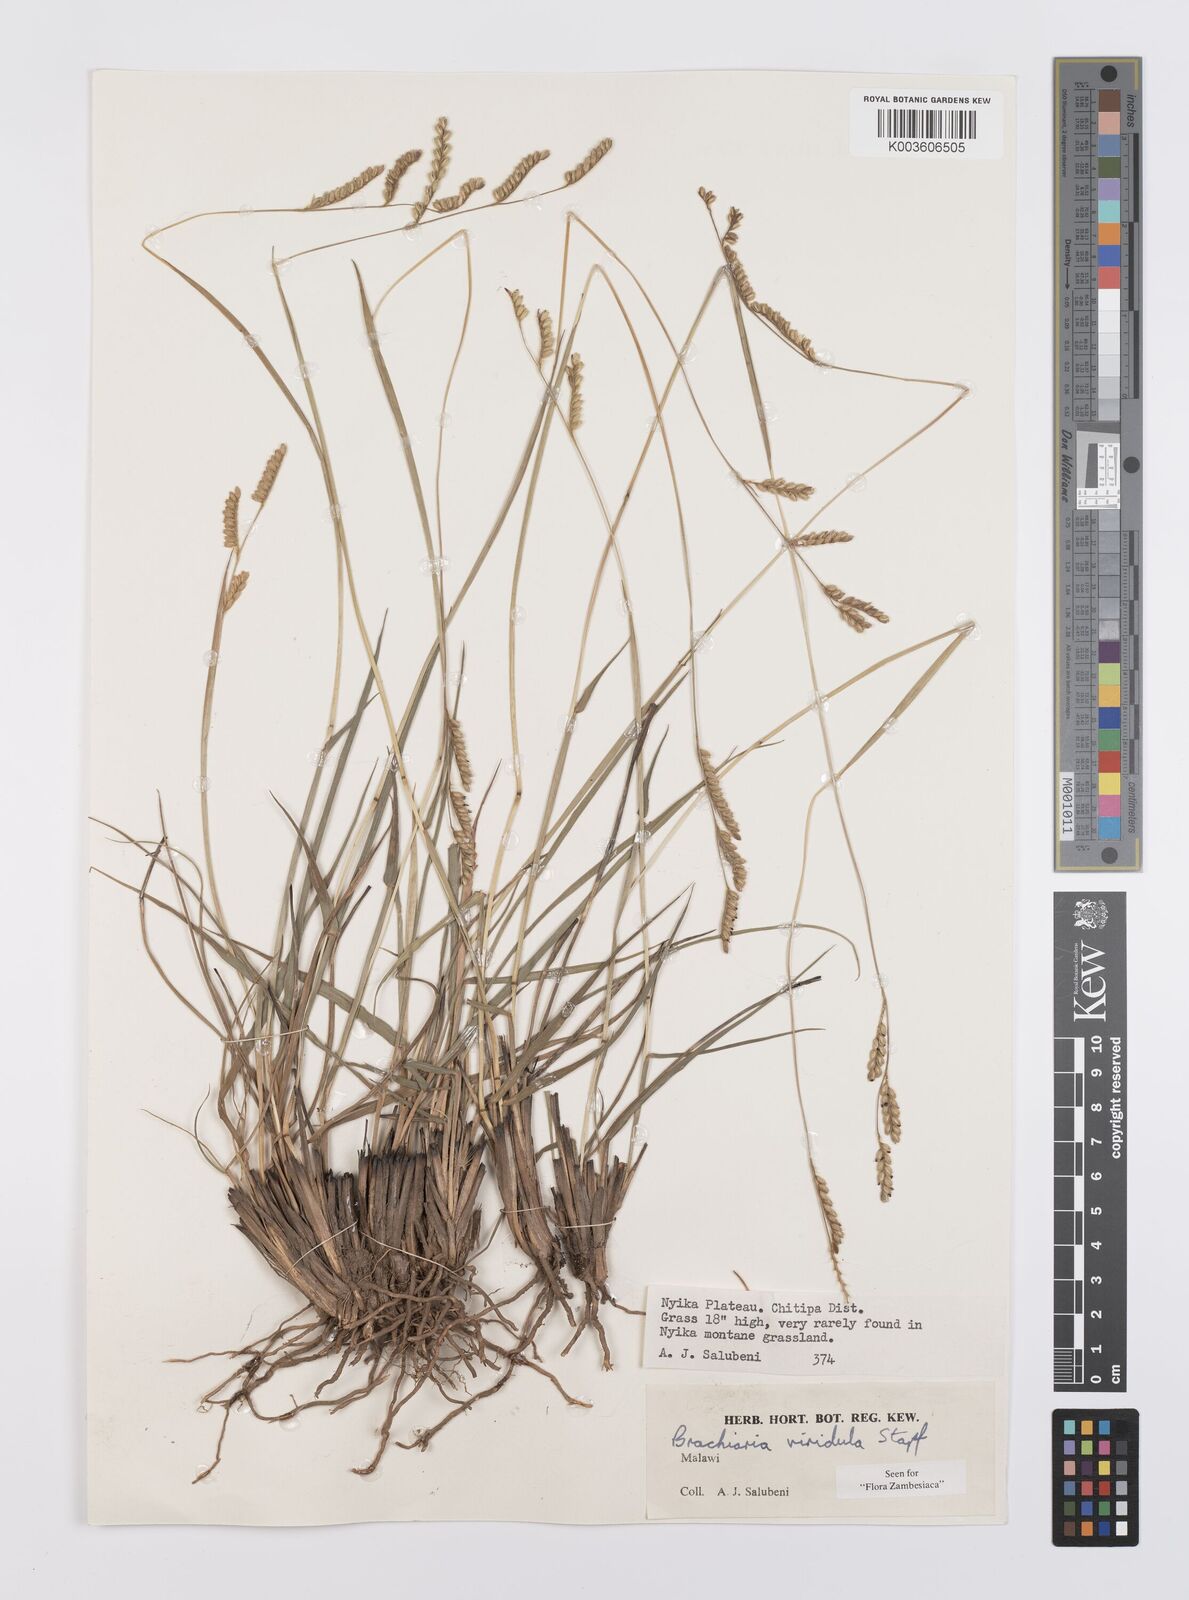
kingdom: Plantae
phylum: Tracheophyta
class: Liliopsida
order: Poales
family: Poaceae
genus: Urochloa
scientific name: Urochloa bovonei
